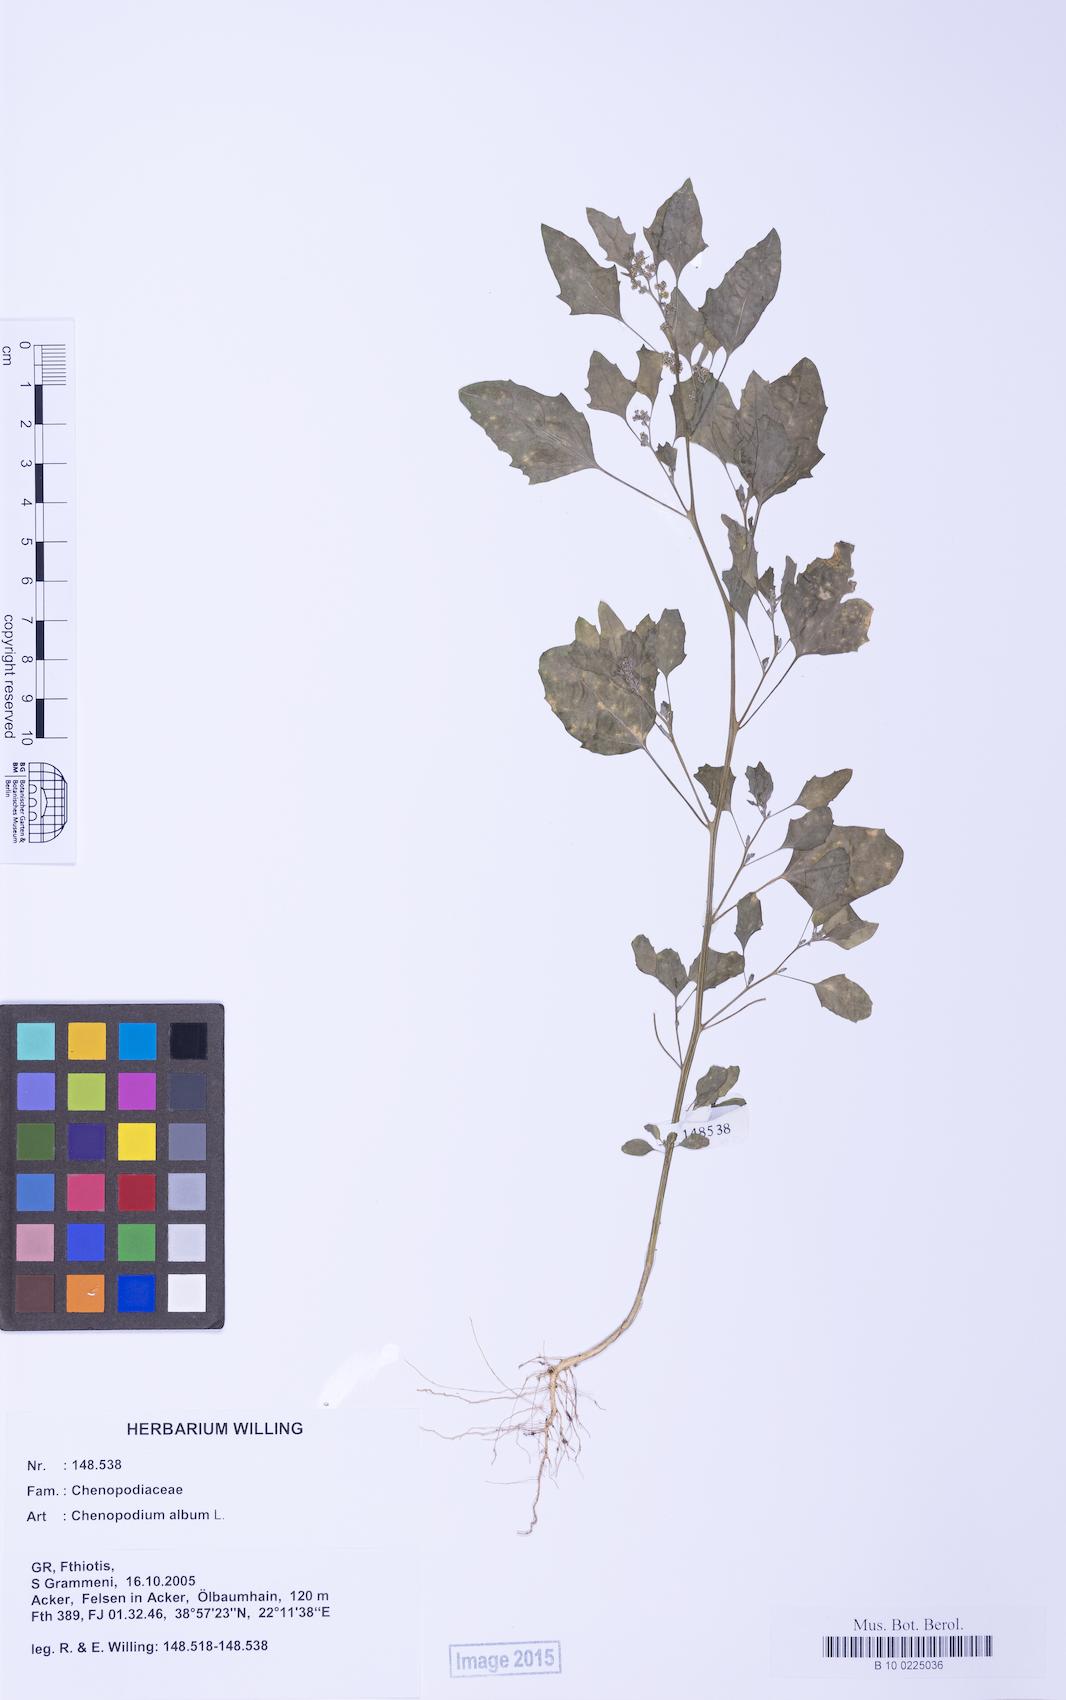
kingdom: Plantae
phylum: Tracheophyta
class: Magnoliopsida
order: Caryophyllales
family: Amaranthaceae
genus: Chenopodium
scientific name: Chenopodium album
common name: Fat-hen
